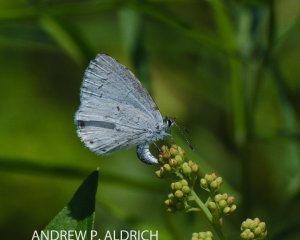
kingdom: Animalia
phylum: Arthropoda
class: Insecta
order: Lepidoptera
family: Lycaenidae
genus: Celastrina
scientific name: Celastrina lucia
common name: Northern Spring Azure
